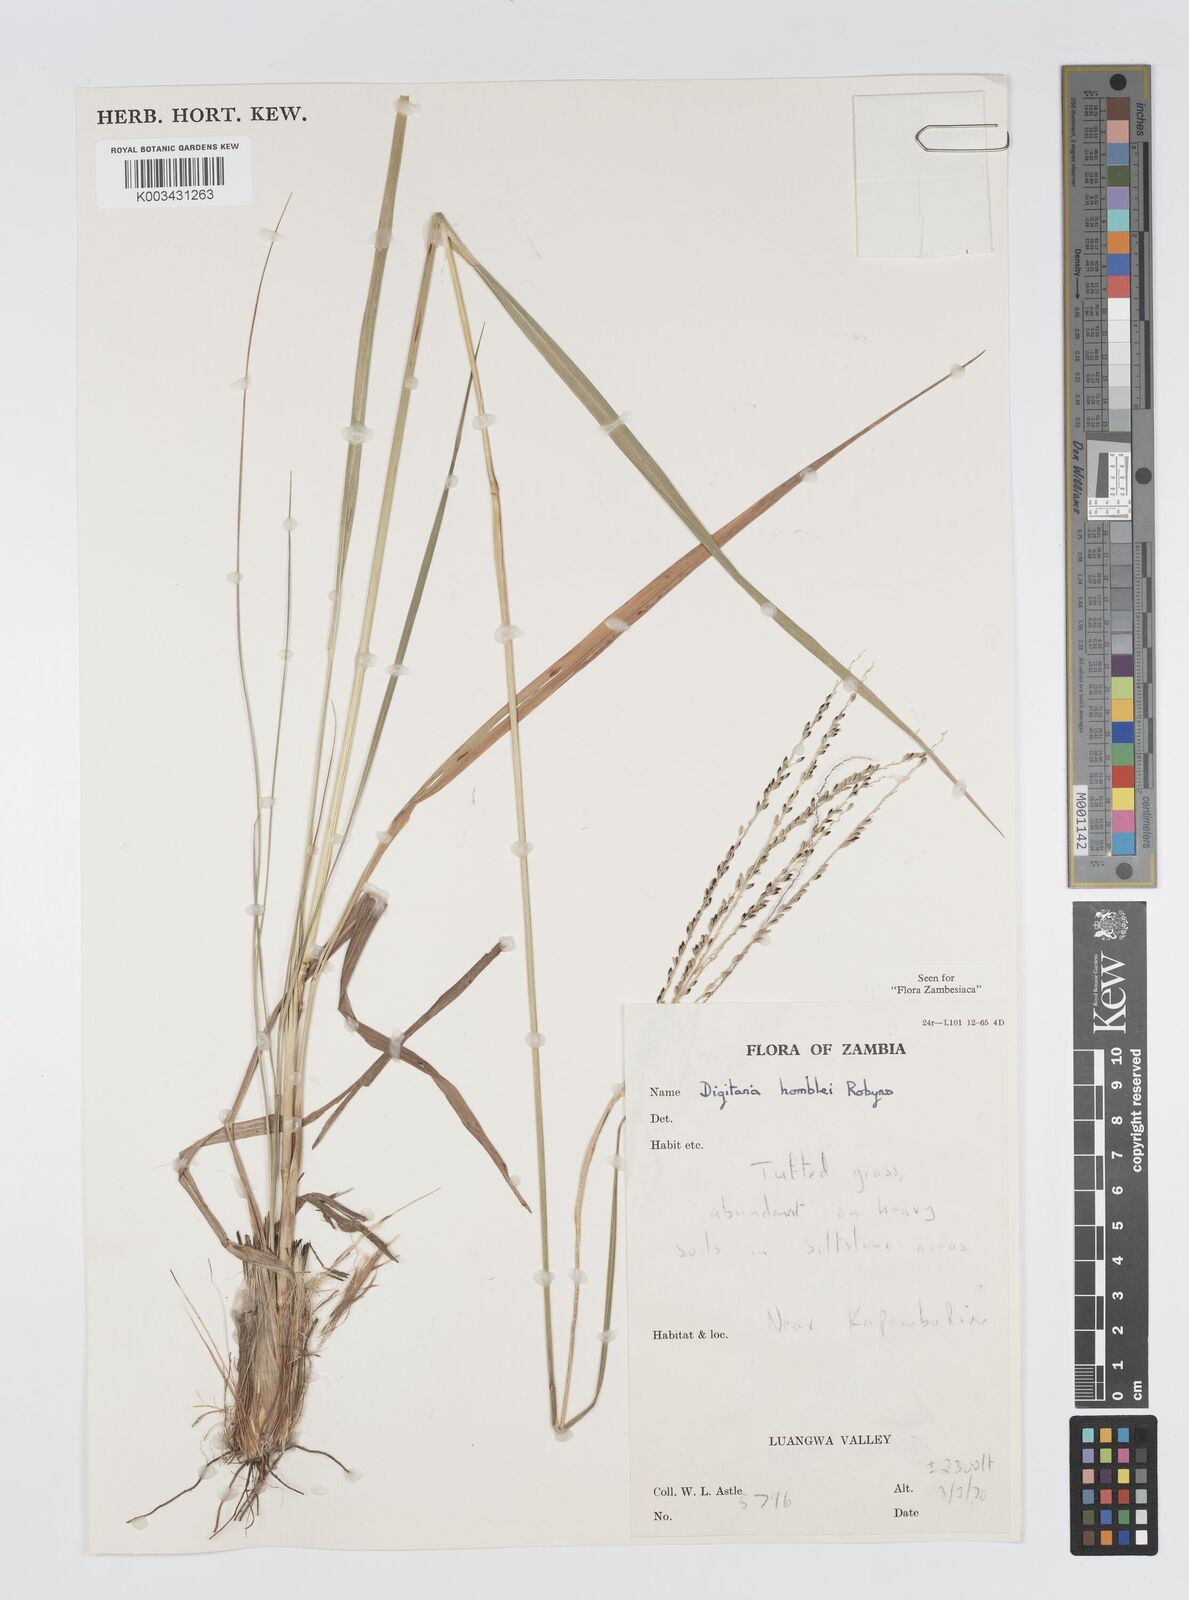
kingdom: Plantae
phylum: Tracheophyta
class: Liliopsida
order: Poales
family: Poaceae
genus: Digitaria
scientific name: Digitaria compressa
